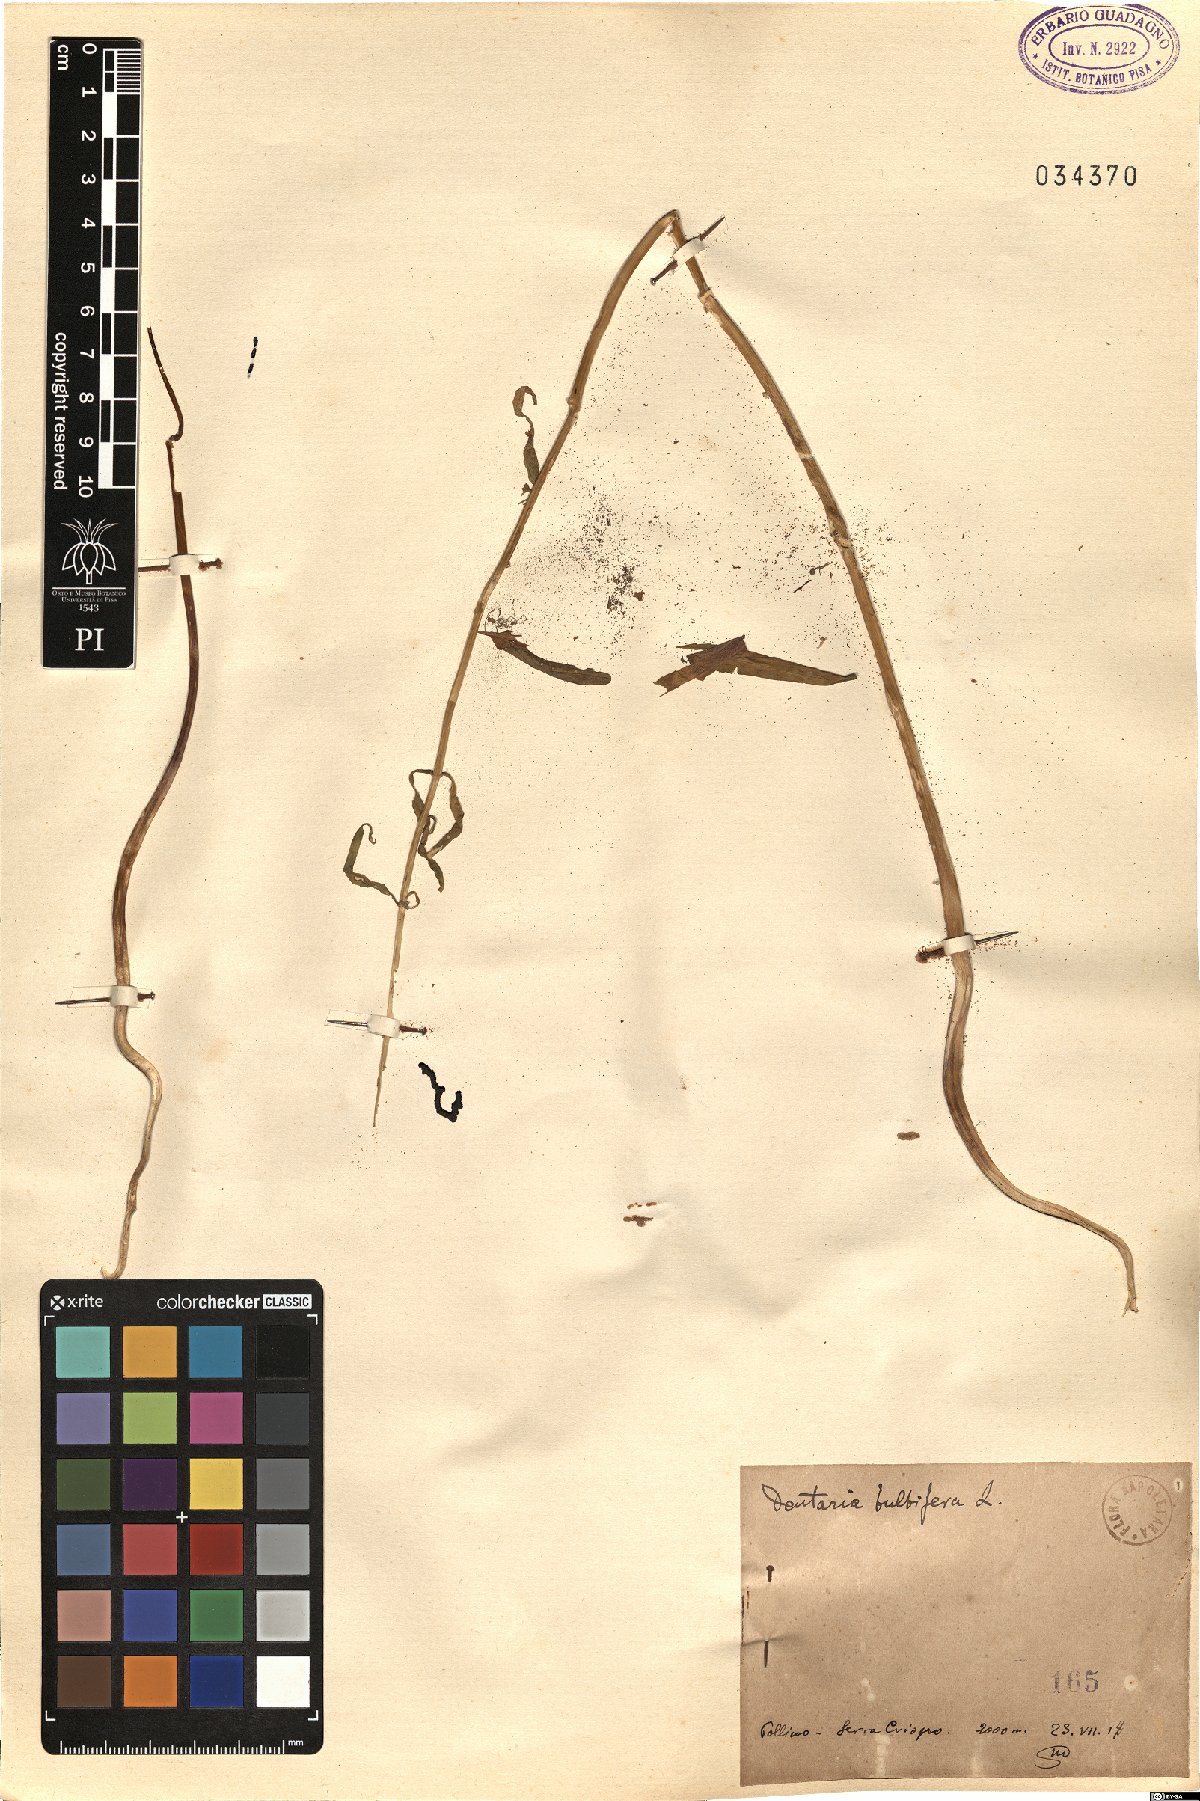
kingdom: Plantae
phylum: Tracheophyta
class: Magnoliopsida
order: Brassicales
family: Brassicaceae
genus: Cardamine
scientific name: Cardamine bulbifera
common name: Coralroot bittercress
